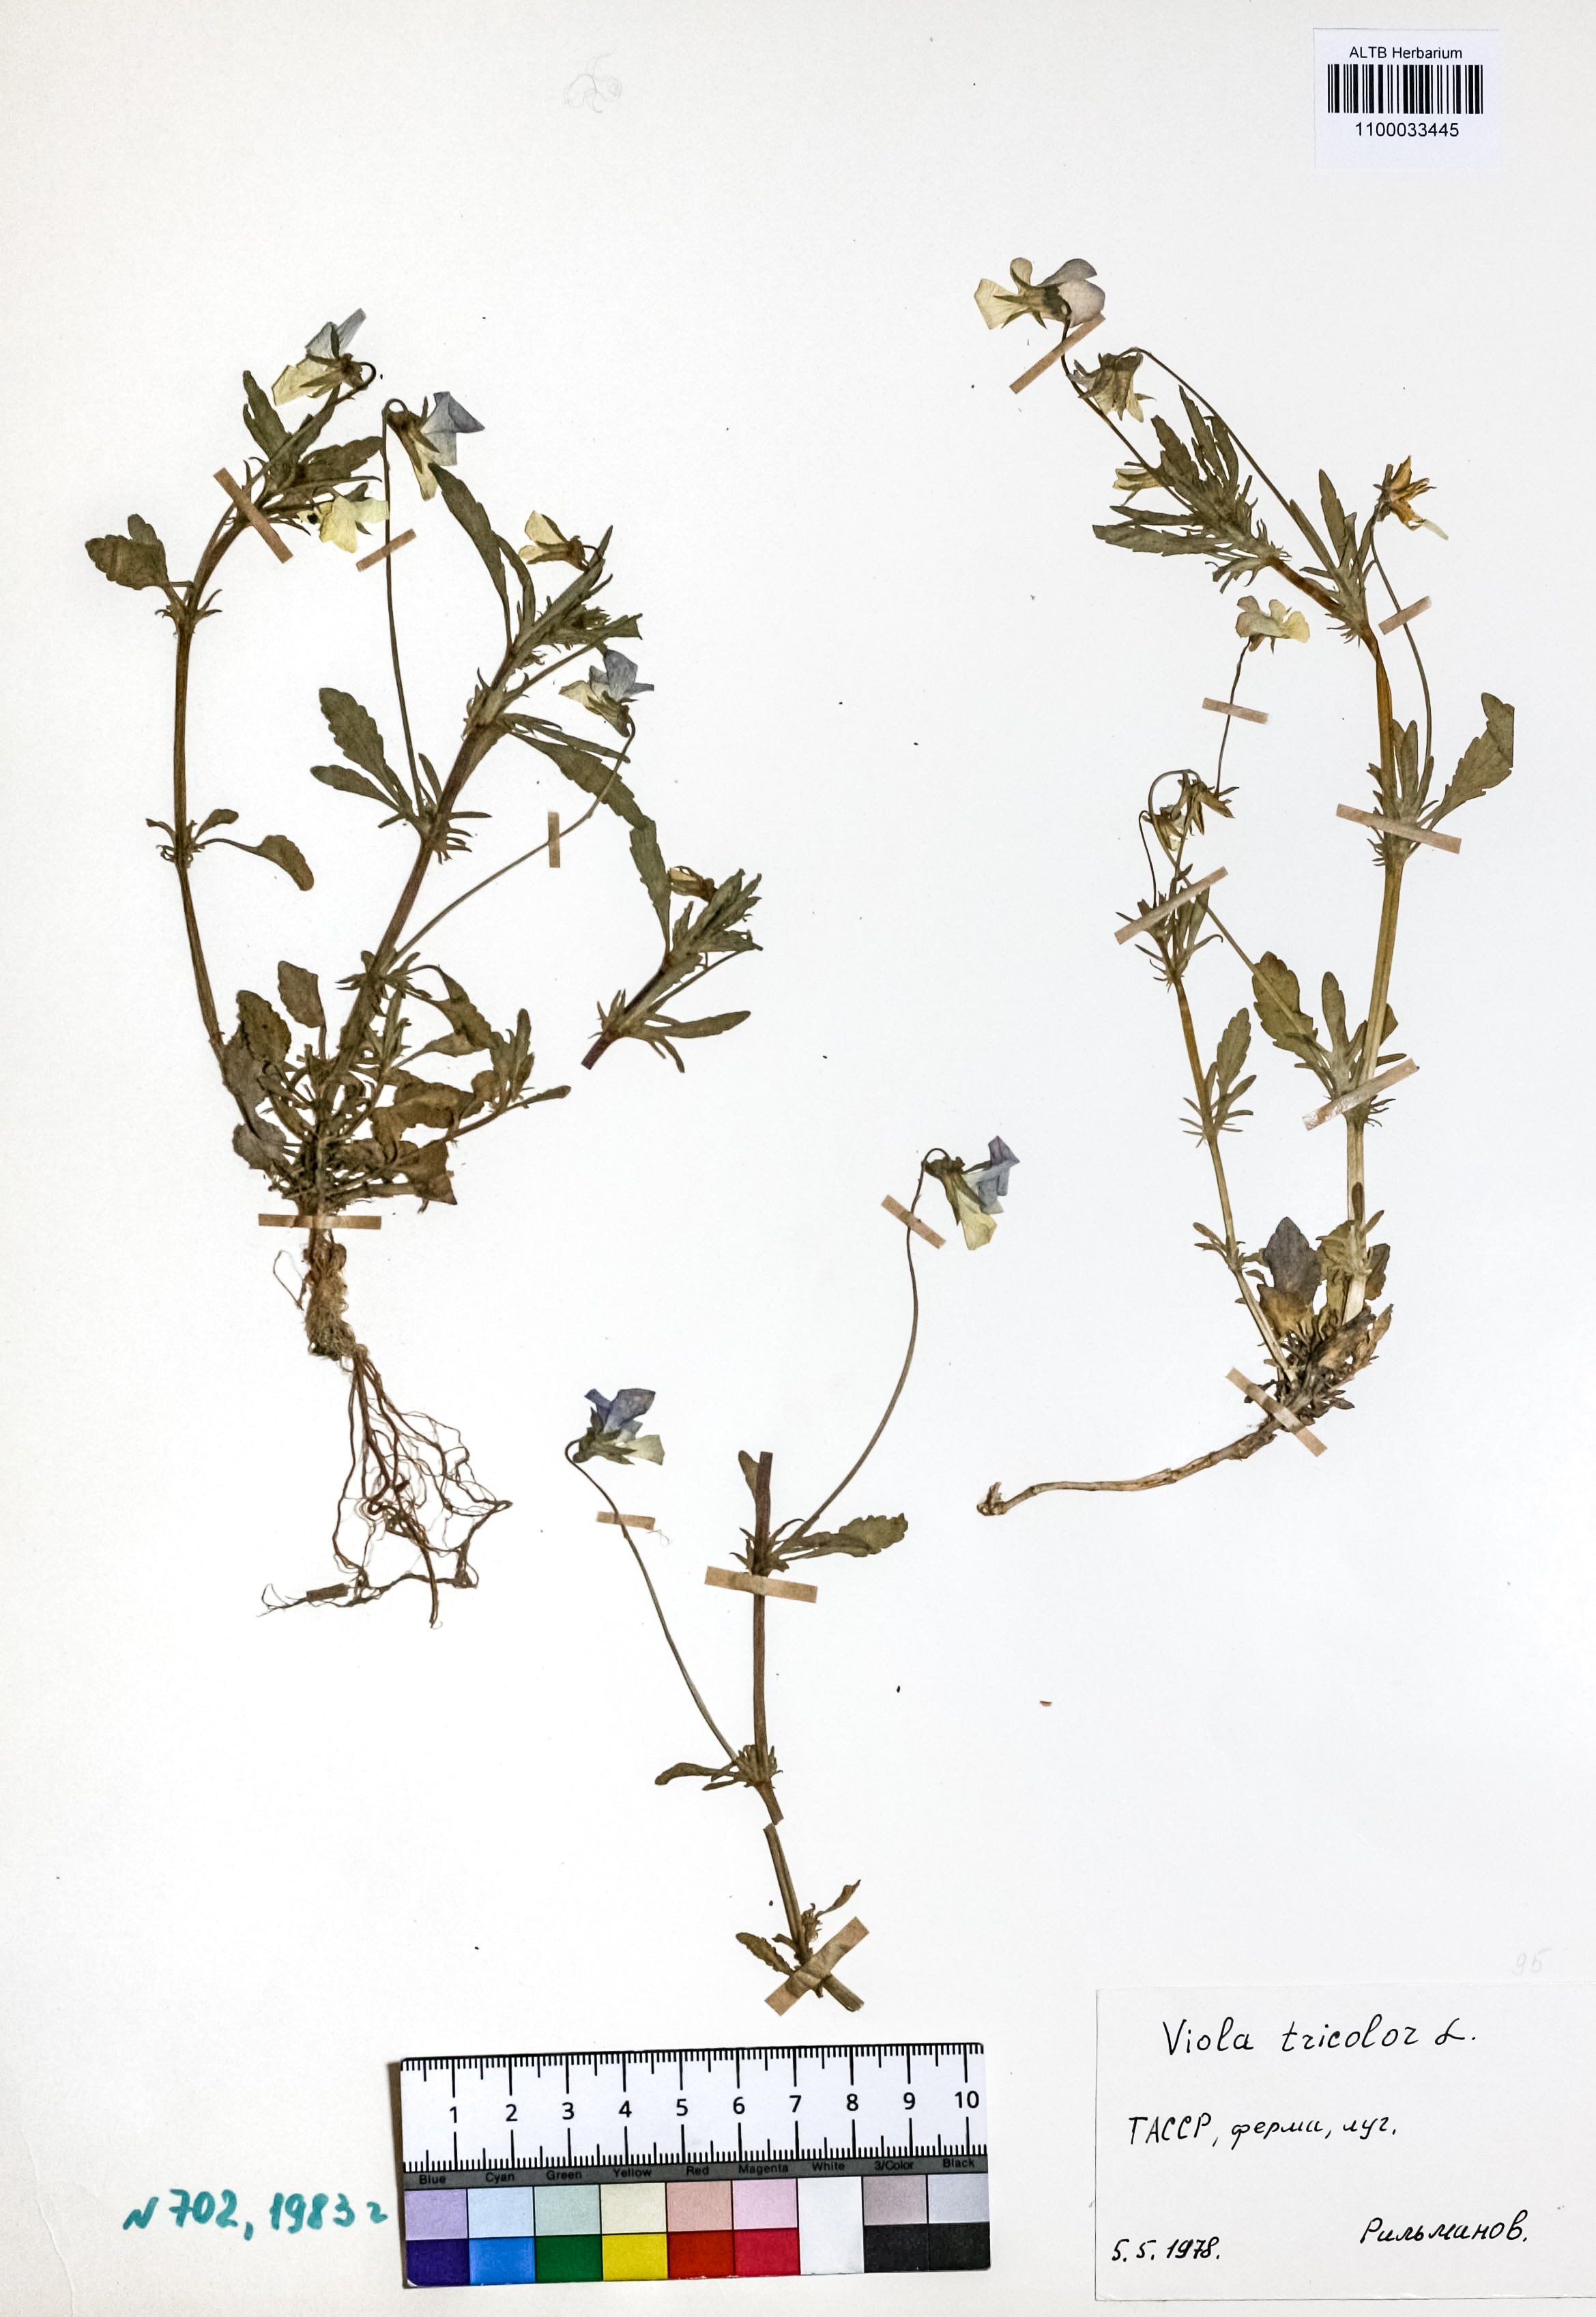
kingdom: Plantae
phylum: Tracheophyta
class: Magnoliopsida
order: Malpighiales
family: Violaceae
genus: Viola
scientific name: Viola tricolor
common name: Pansy
